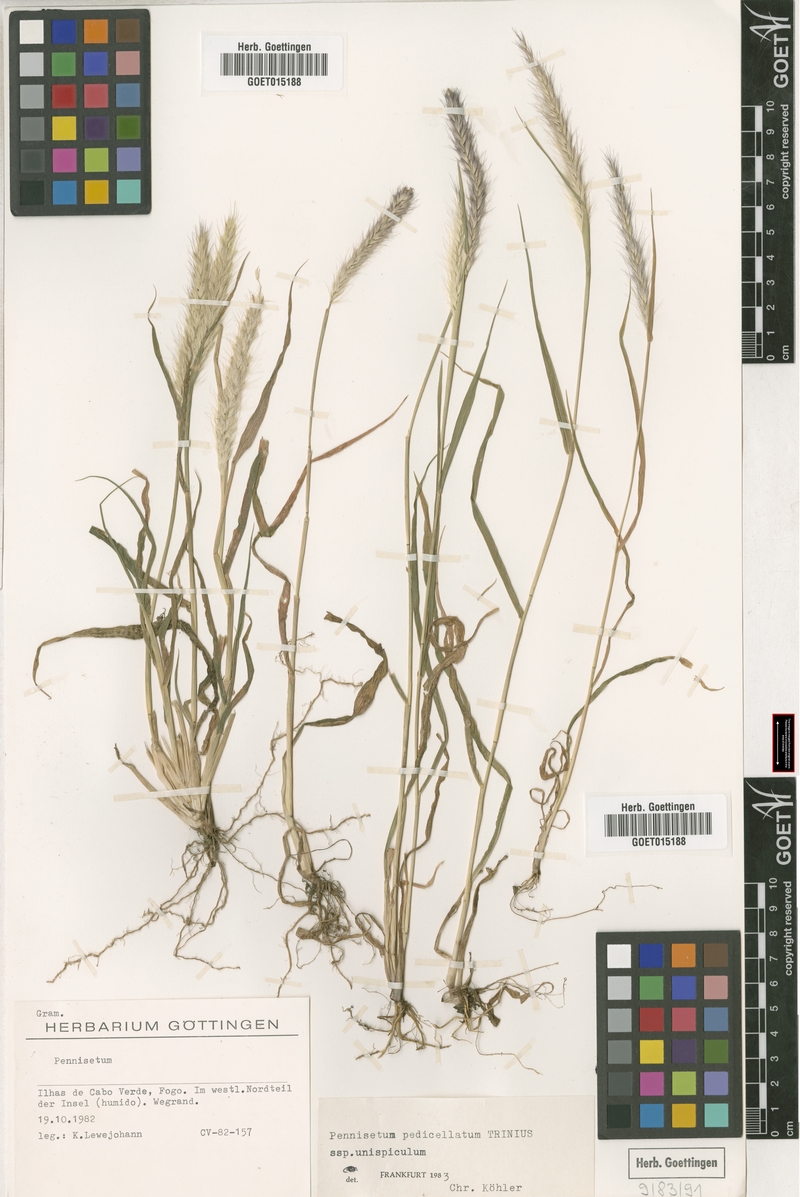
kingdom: Plantae
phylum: Tracheophyta
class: Liliopsida
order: Poales
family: Poaceae
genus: Cenchrus
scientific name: Cenchrus pedicellatus
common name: Hairy fountain grass
